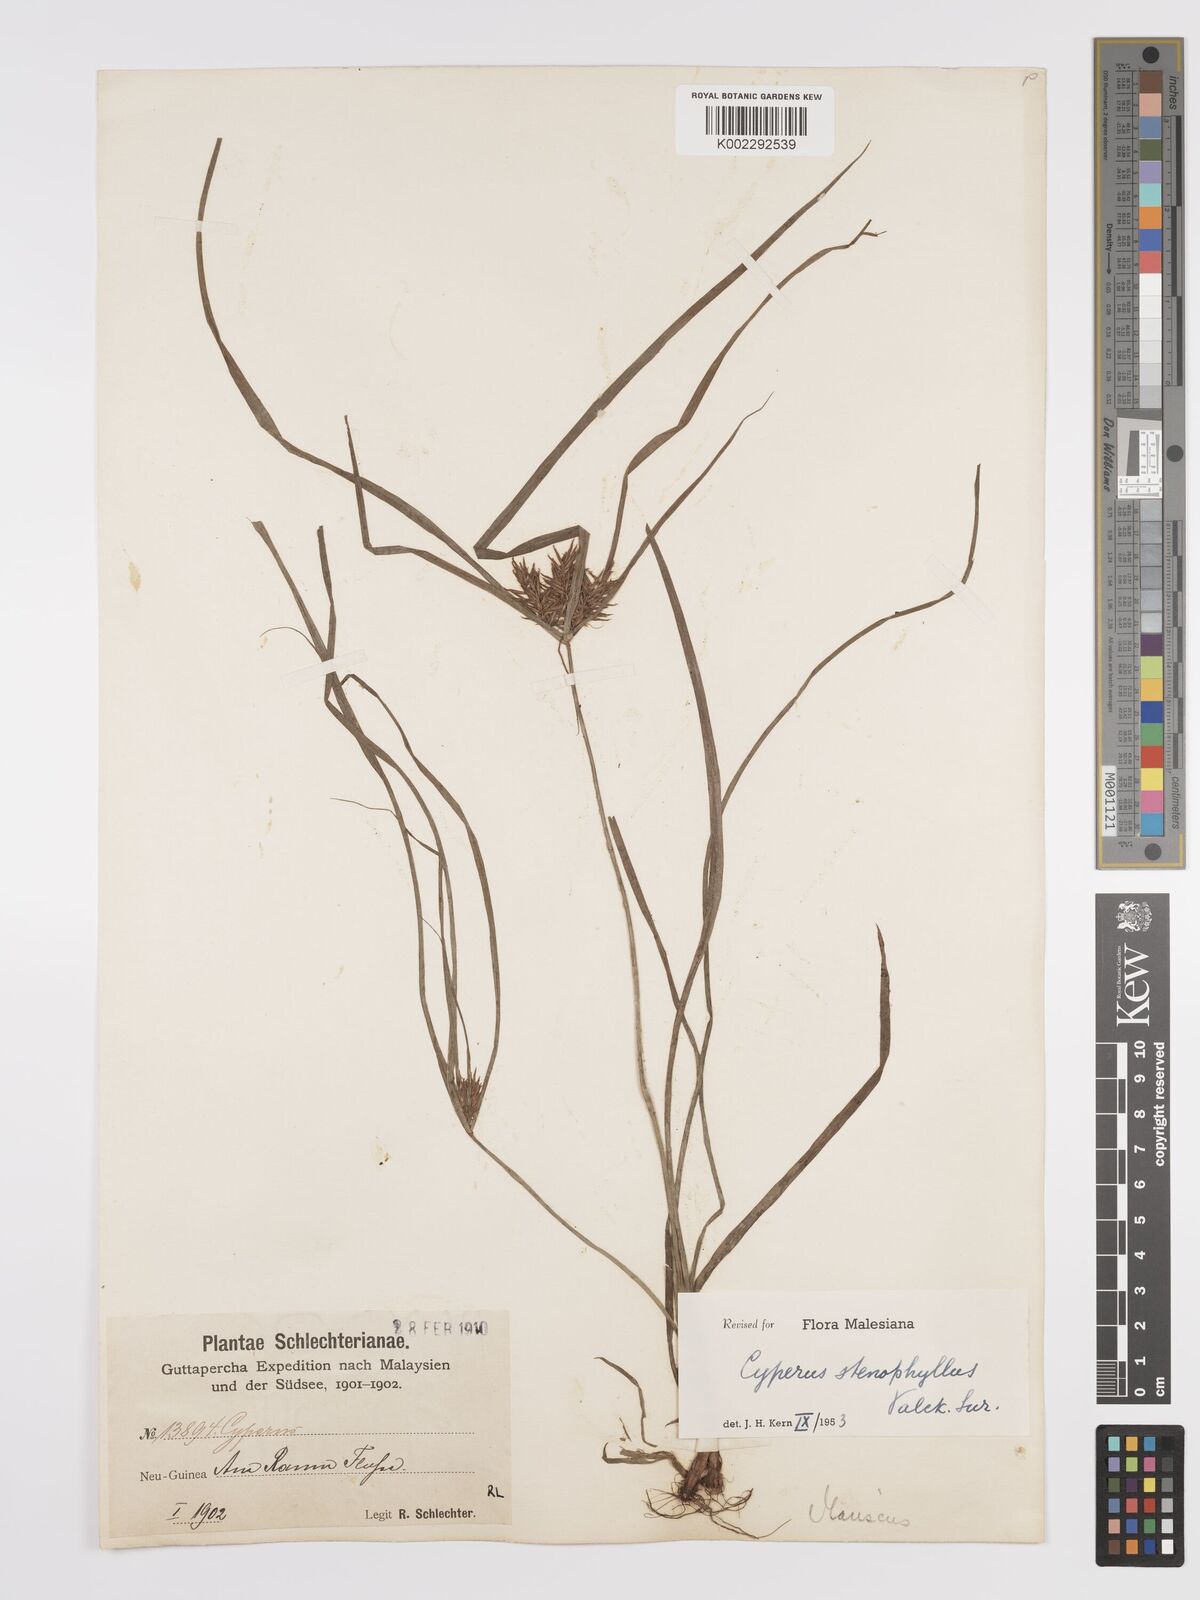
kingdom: Plantae
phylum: Tracheophyta
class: Liliopsida
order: Poales
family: Cyperaceae
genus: Cyperus
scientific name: Cyperus stenophyllus
